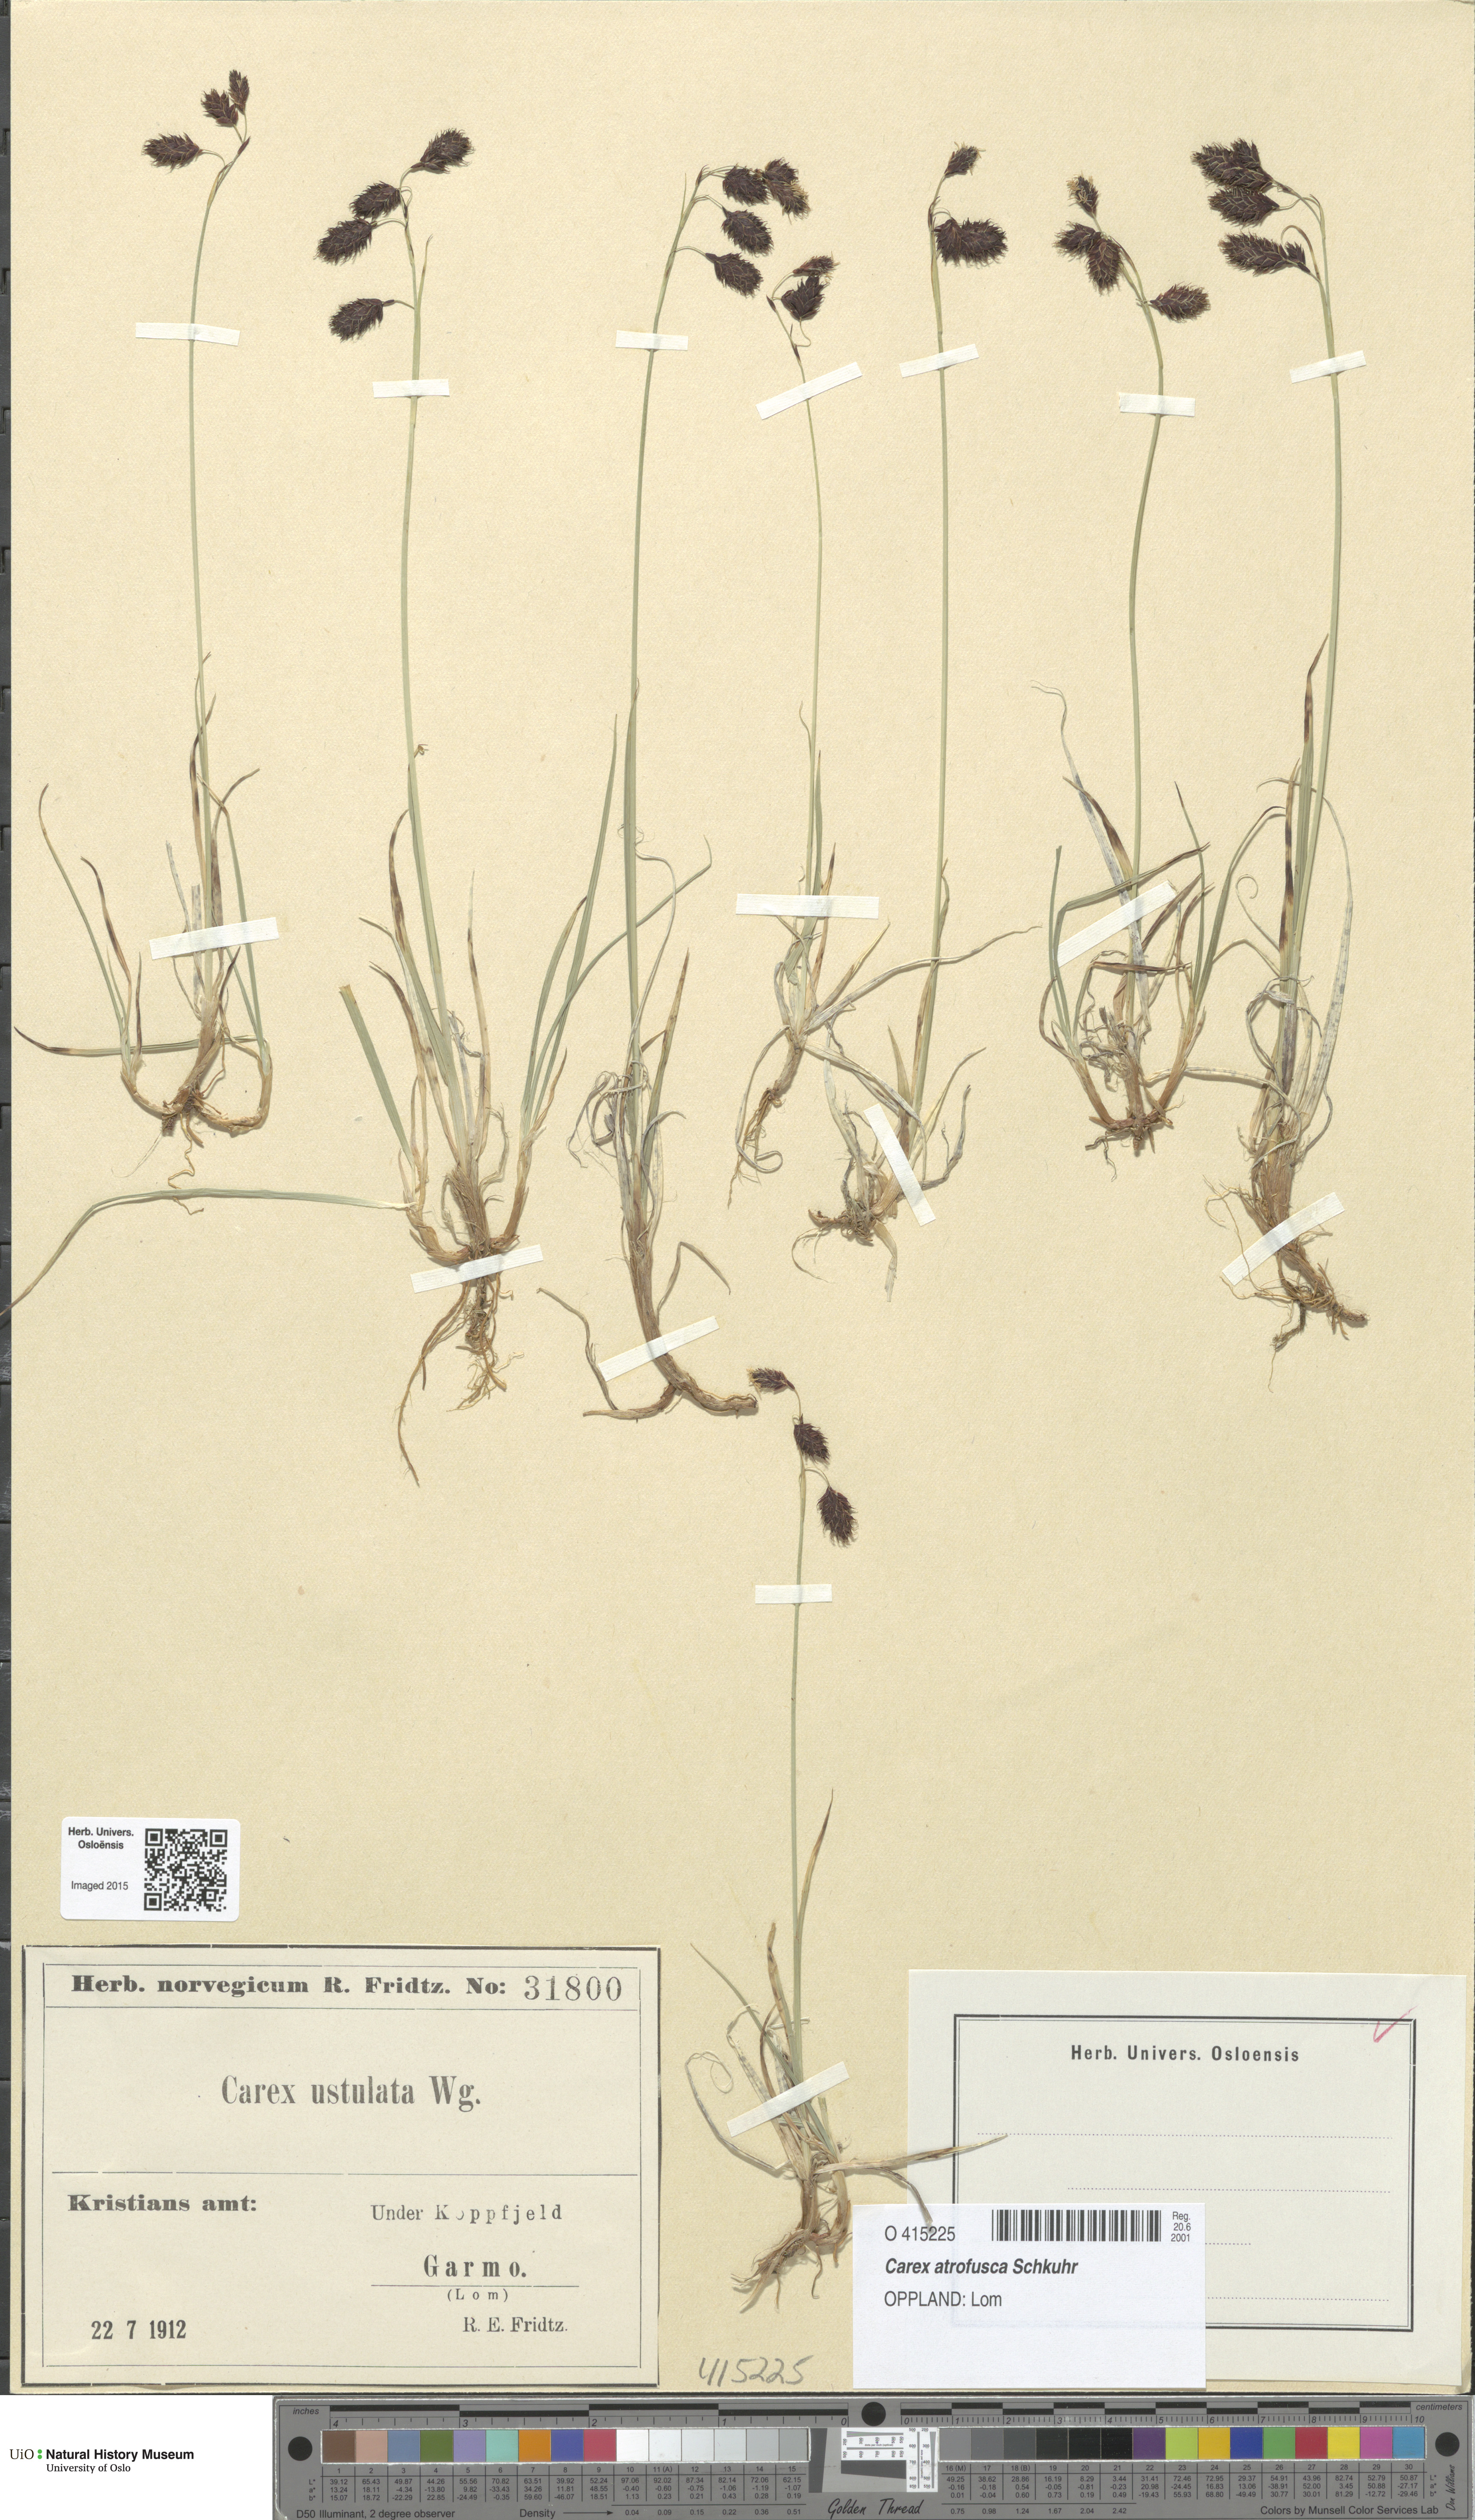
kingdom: Plantae
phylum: Tracheophyta
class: Liliopsida
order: Poales
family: Cyperaceae
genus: Carex
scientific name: Carex atrofusca
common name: Scorched alpine-sedge
